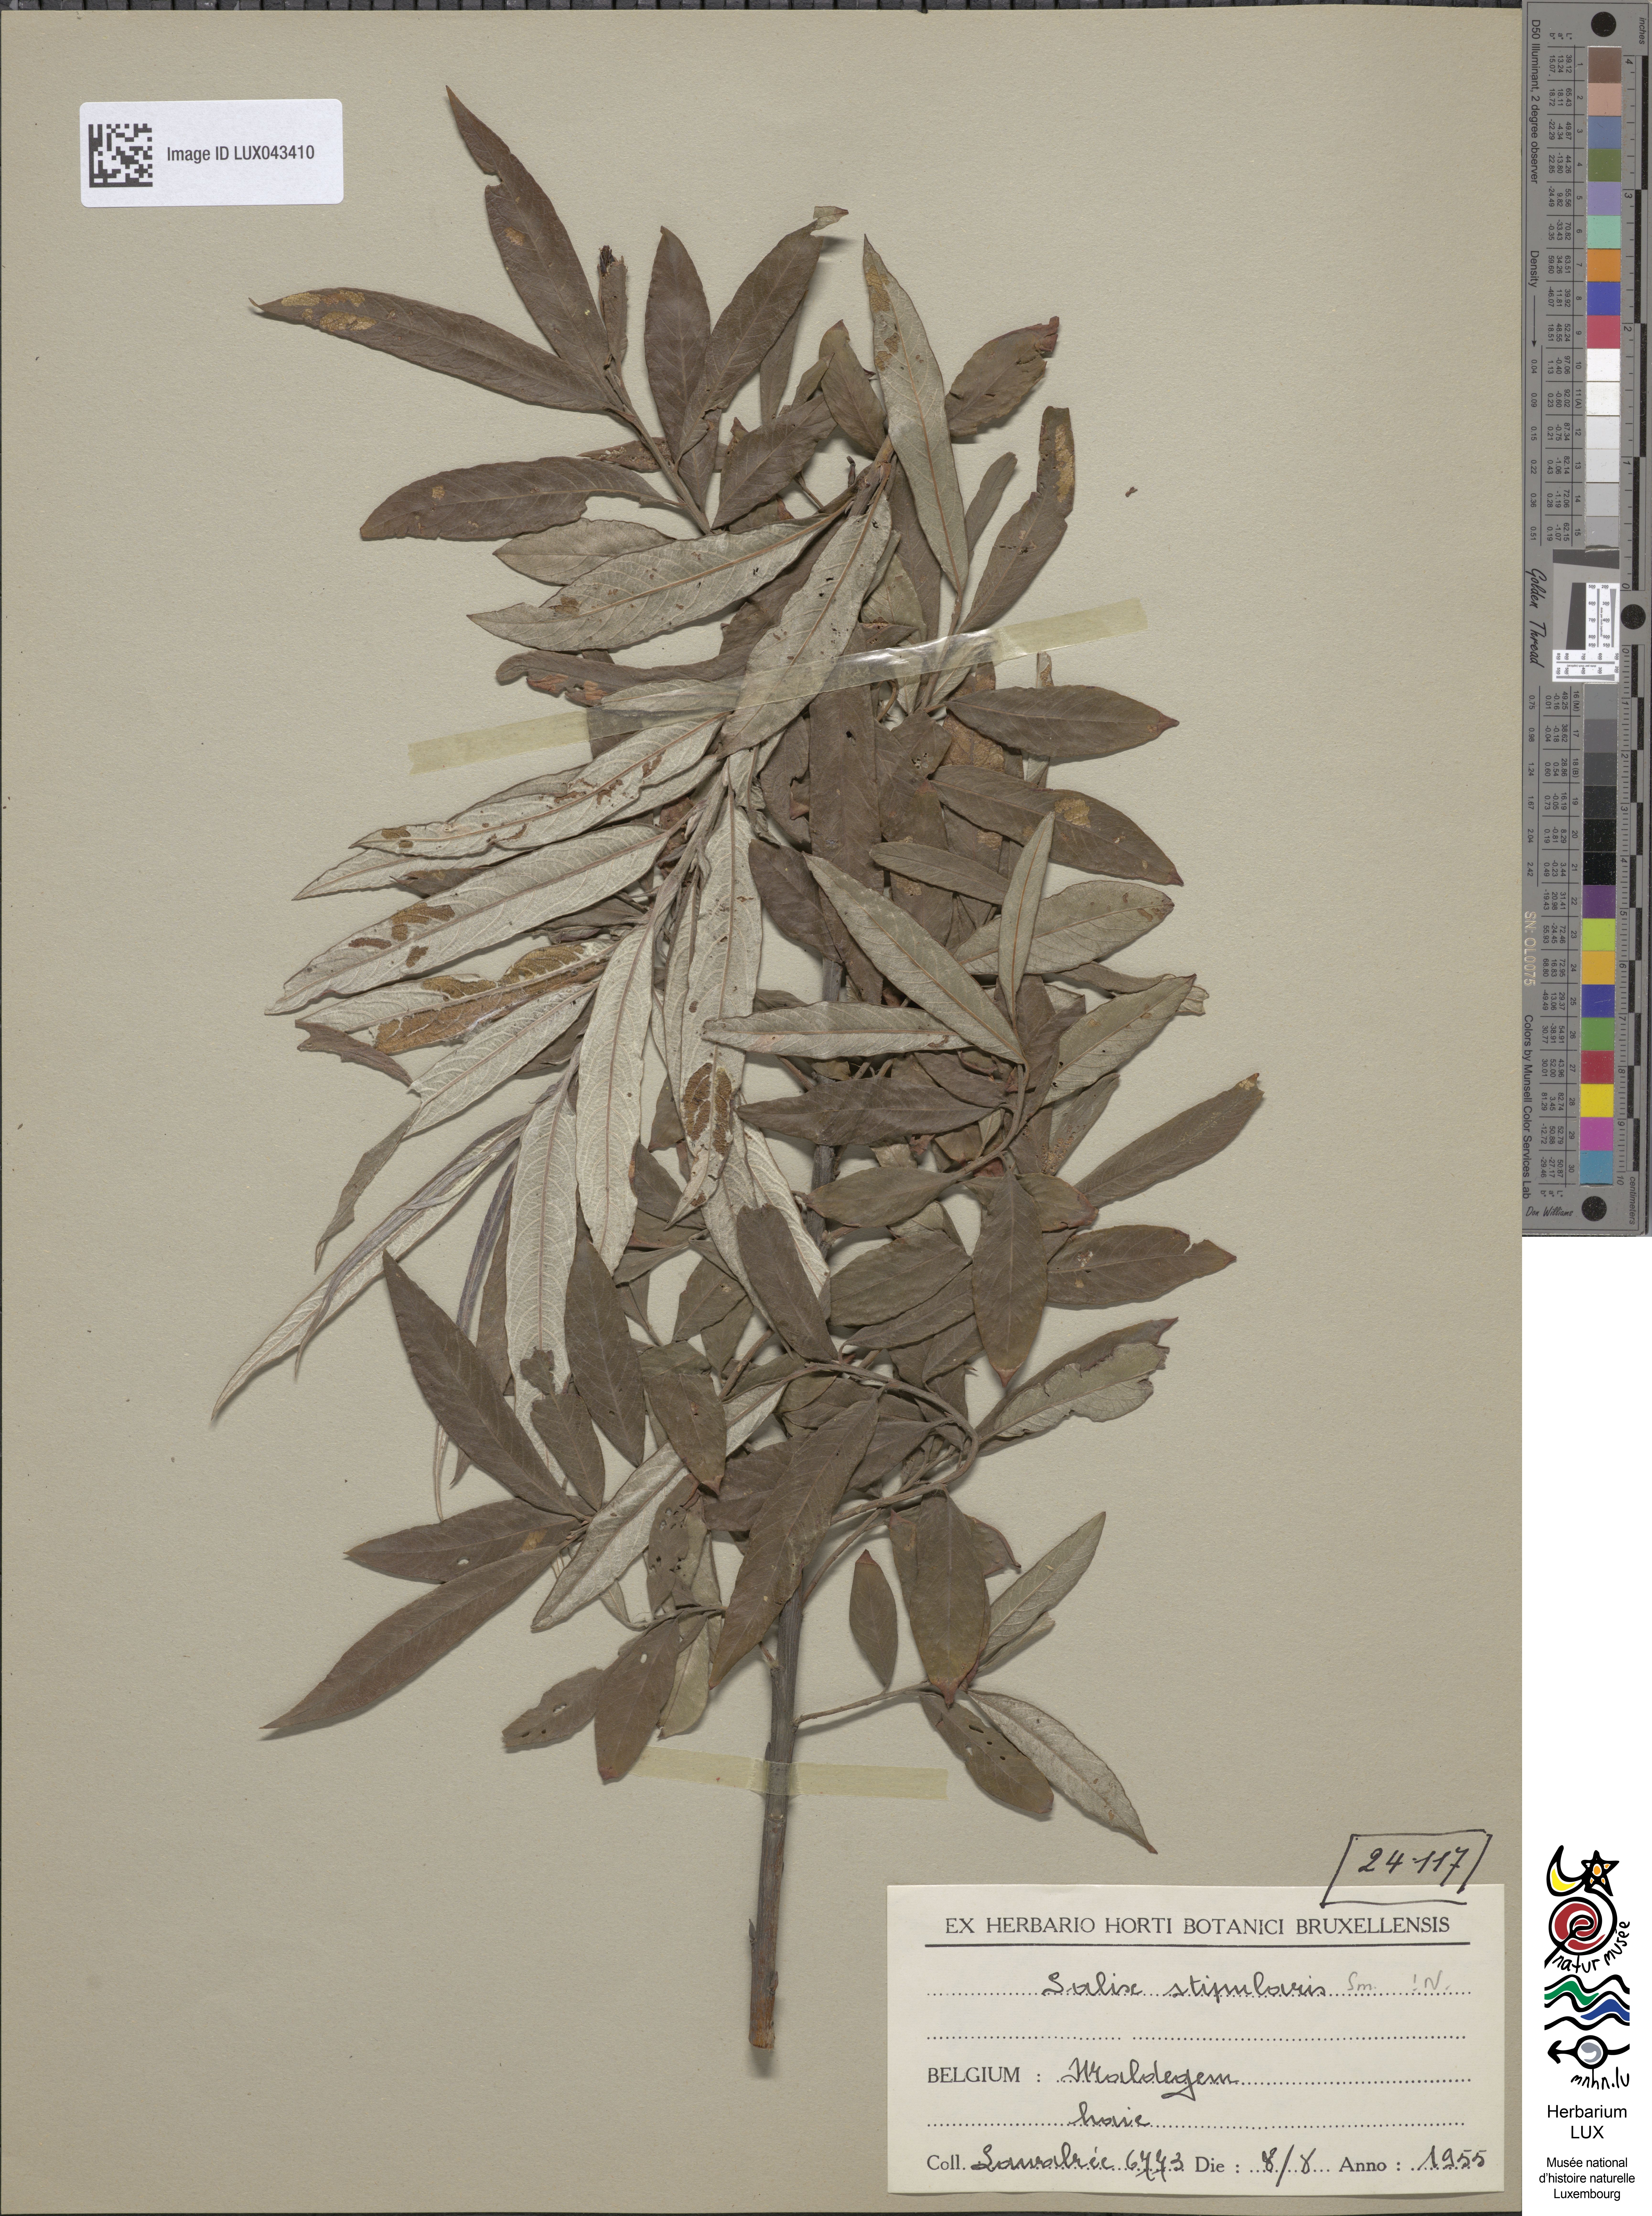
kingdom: Plantae
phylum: Tracheophyta
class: Magnoliopsida
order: Malpighiales
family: Salicaceae
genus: Salix
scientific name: Salix stipularis
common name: Eared osier
